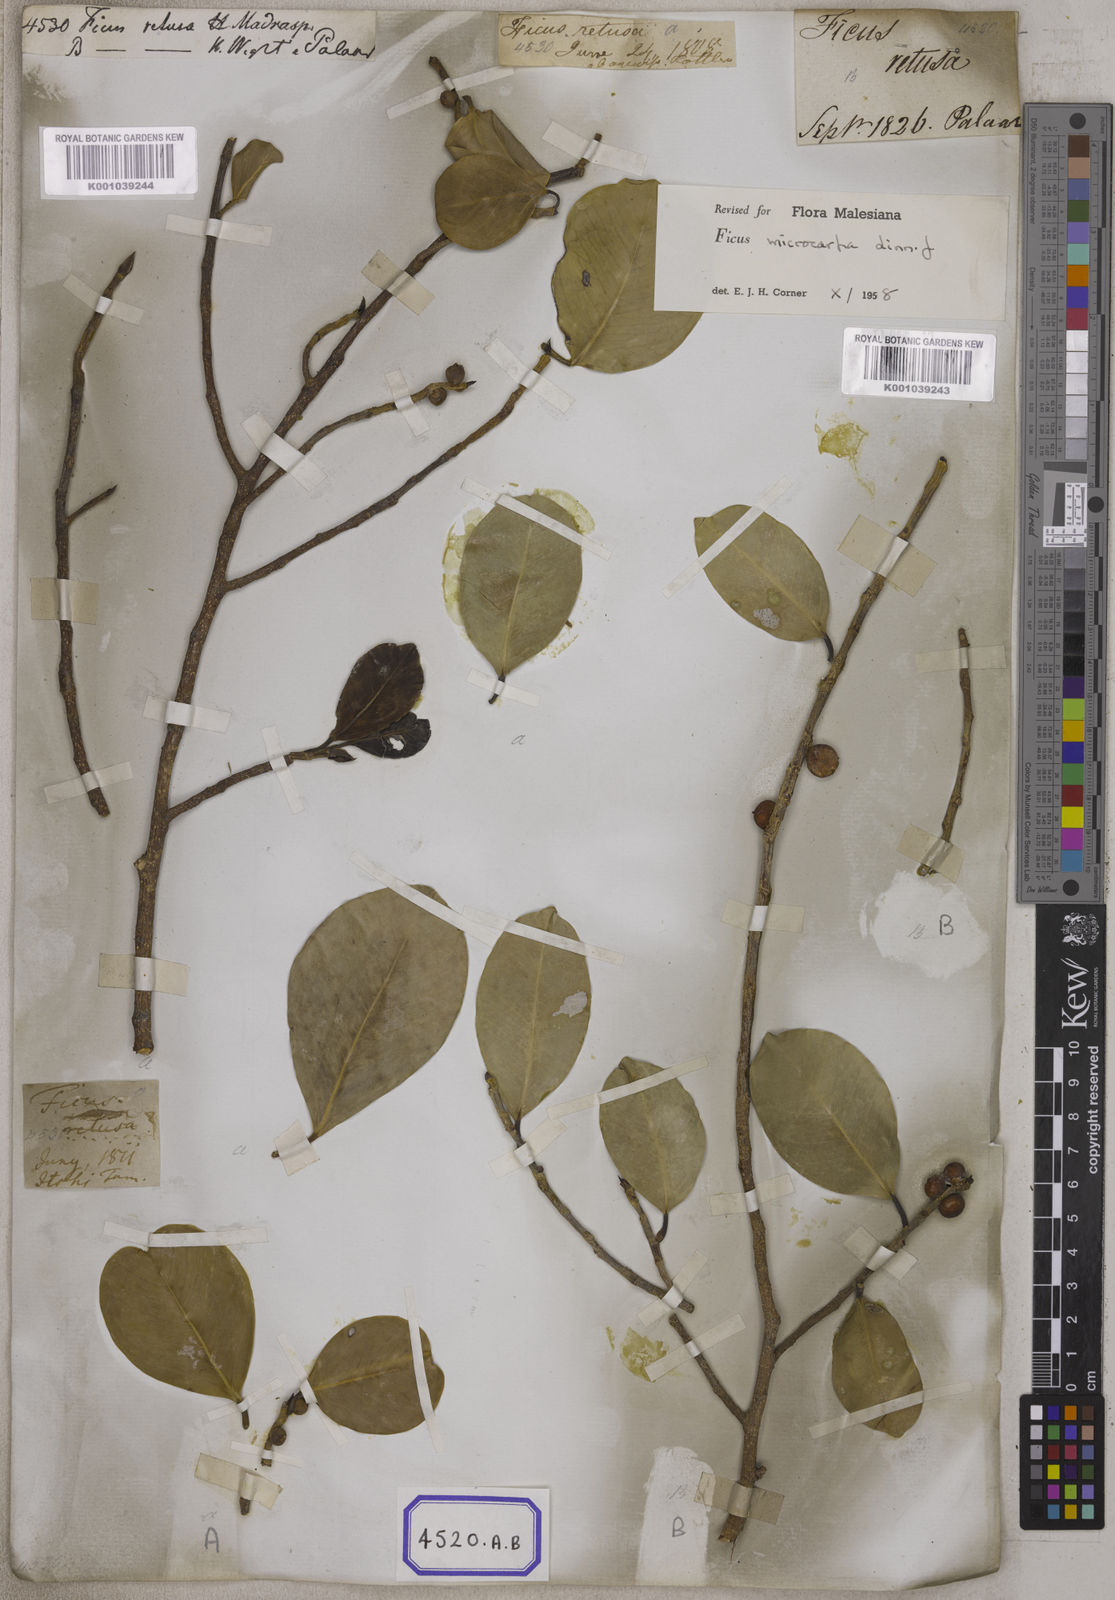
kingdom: Plantae
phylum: Tracheophyta
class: Magnoliopsida
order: Rosales
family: Moraceae
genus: Ficus
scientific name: Ficus
